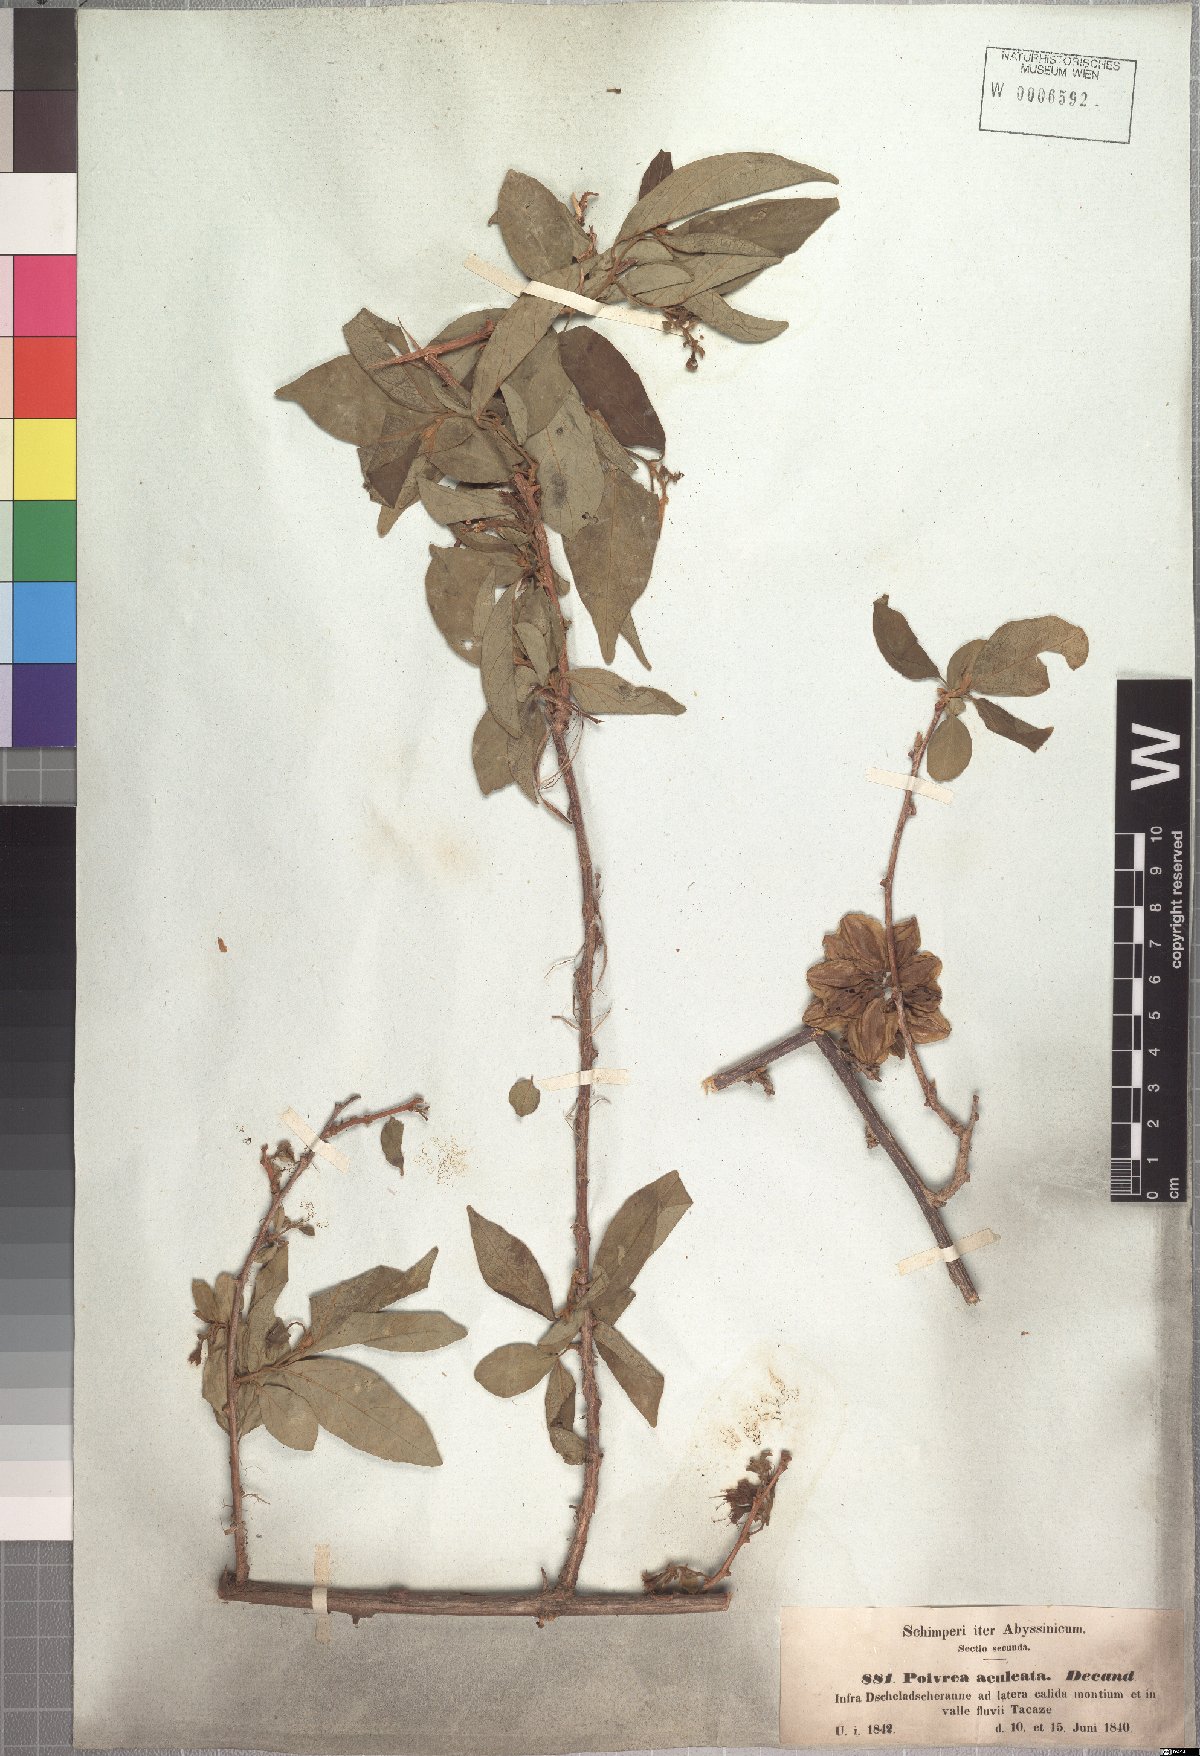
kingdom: Plantae
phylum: Tracheophyta
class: Magnoliopsida
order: Myrtales
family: Combretaceae
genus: Combretum
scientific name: Combretum aculeatum
